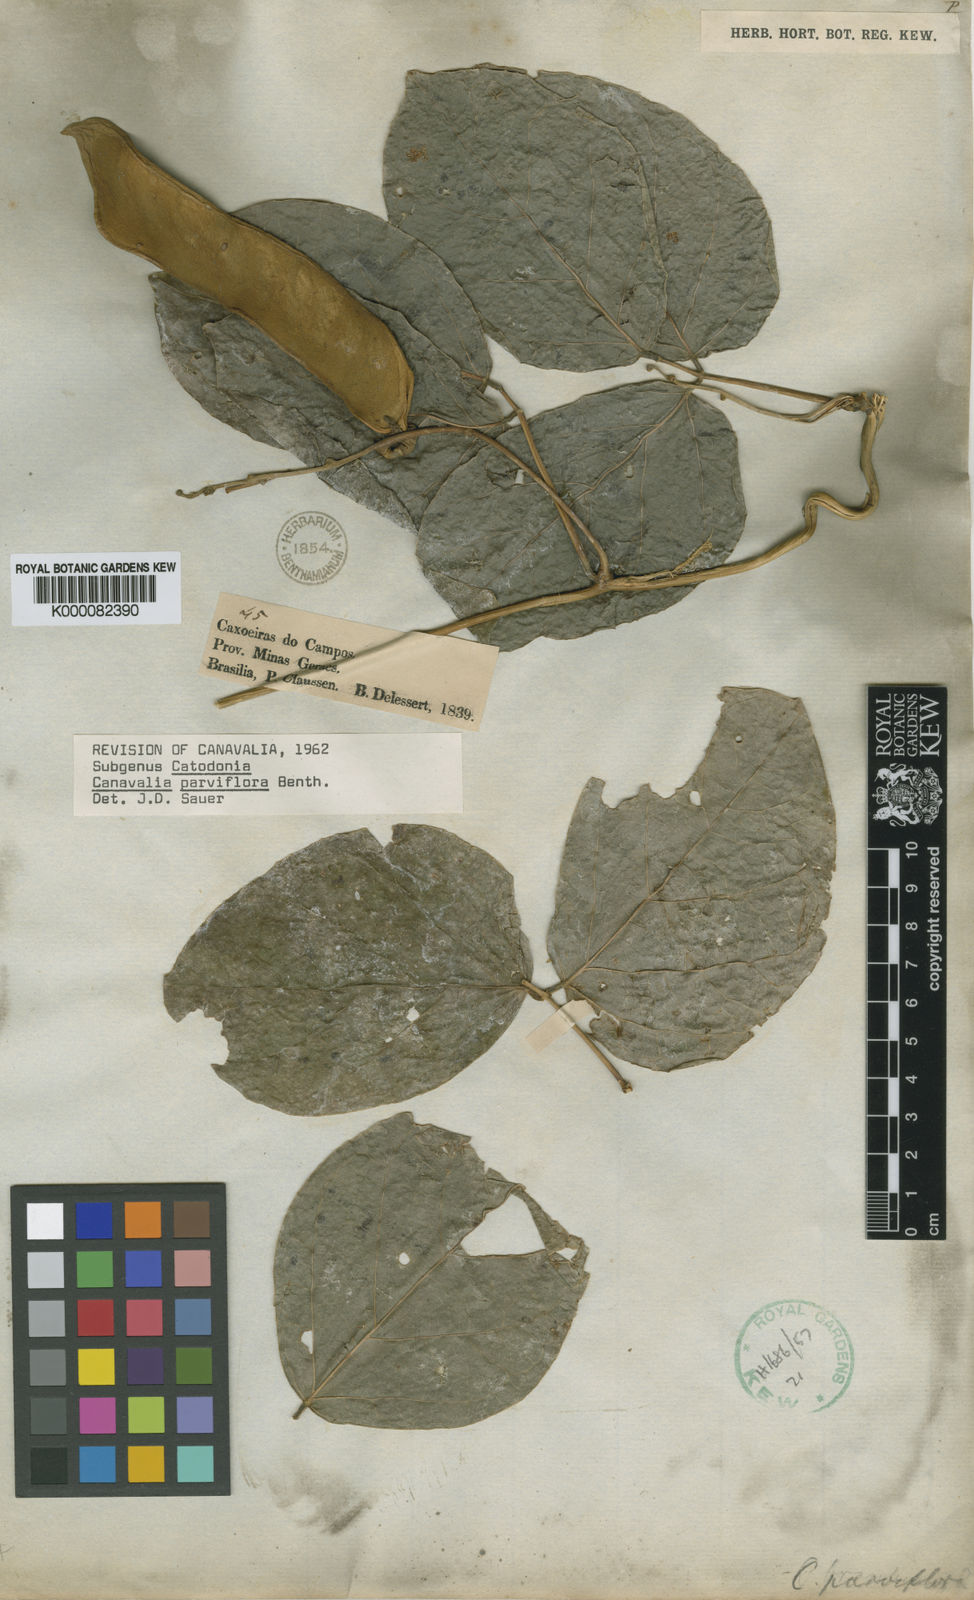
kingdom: Plantae
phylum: Tracheophyta
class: Magnoliopsida
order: Fabales
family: Fabaceae
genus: Canavalia
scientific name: Canavalia parviflora
